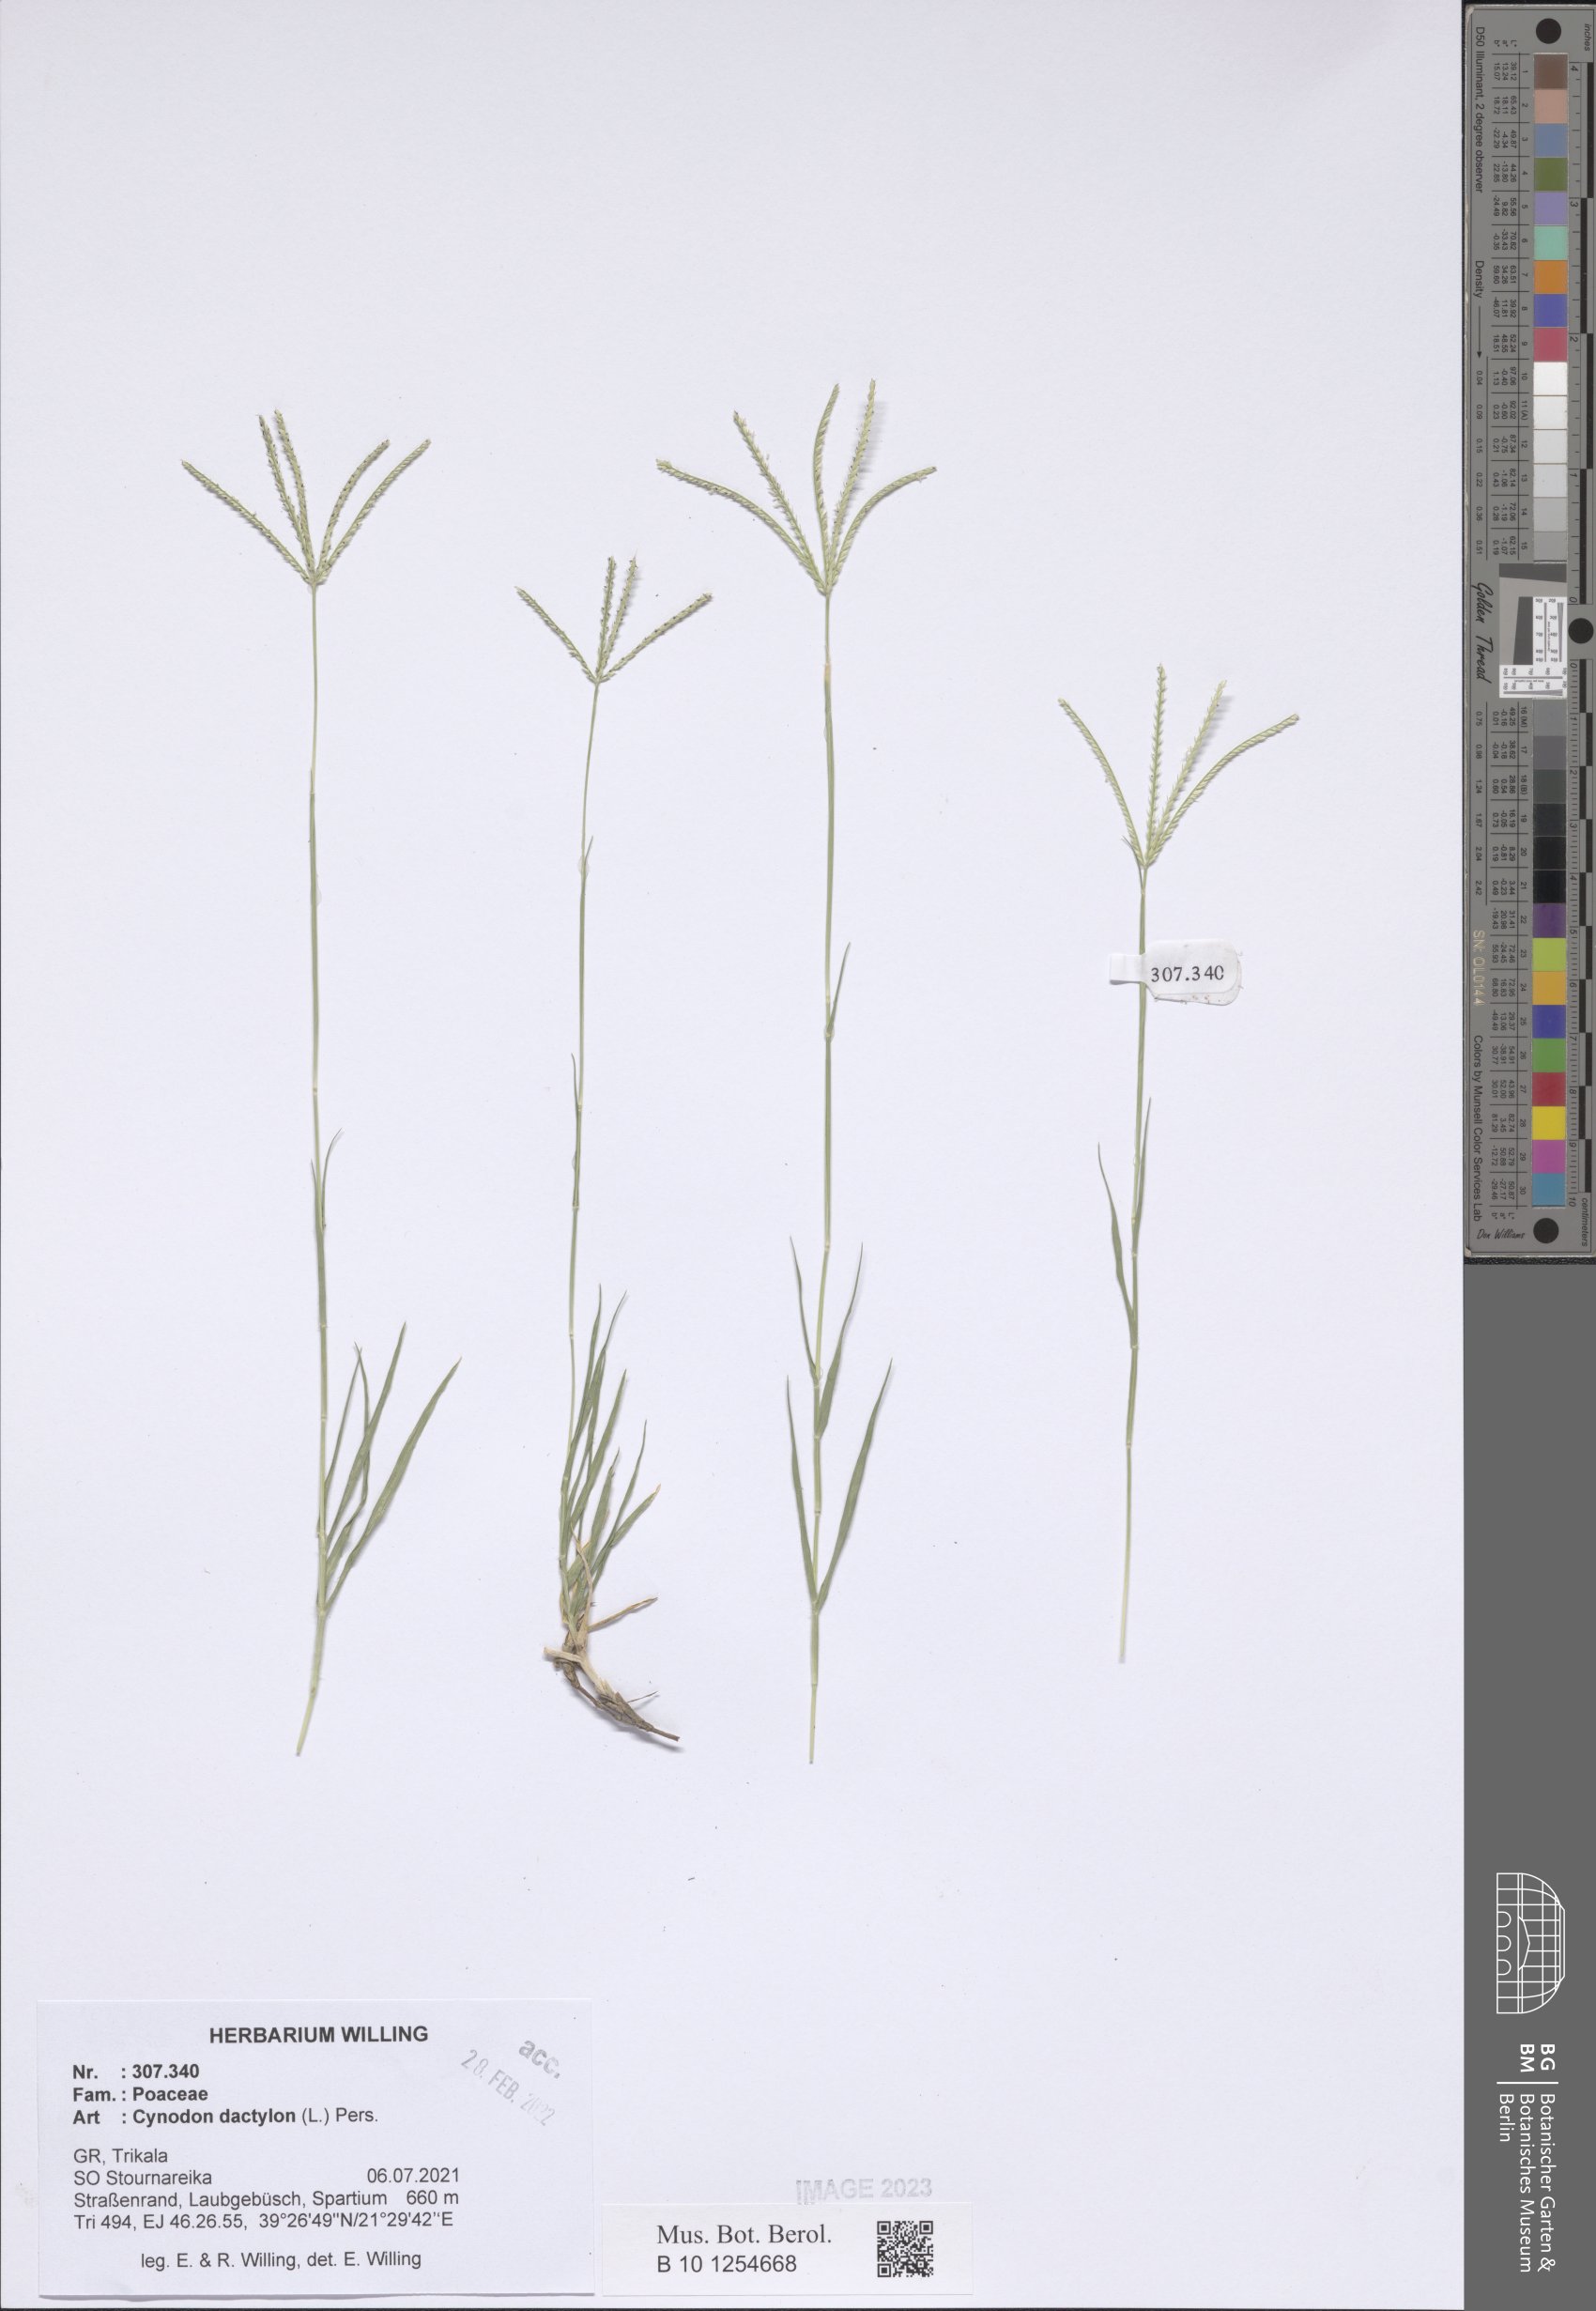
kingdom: Plantae
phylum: Tracheophyta
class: Liliopsida
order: Poales
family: Poaceae
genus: Cynodon
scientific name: Cynodon dactylon
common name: Bermuda grass
